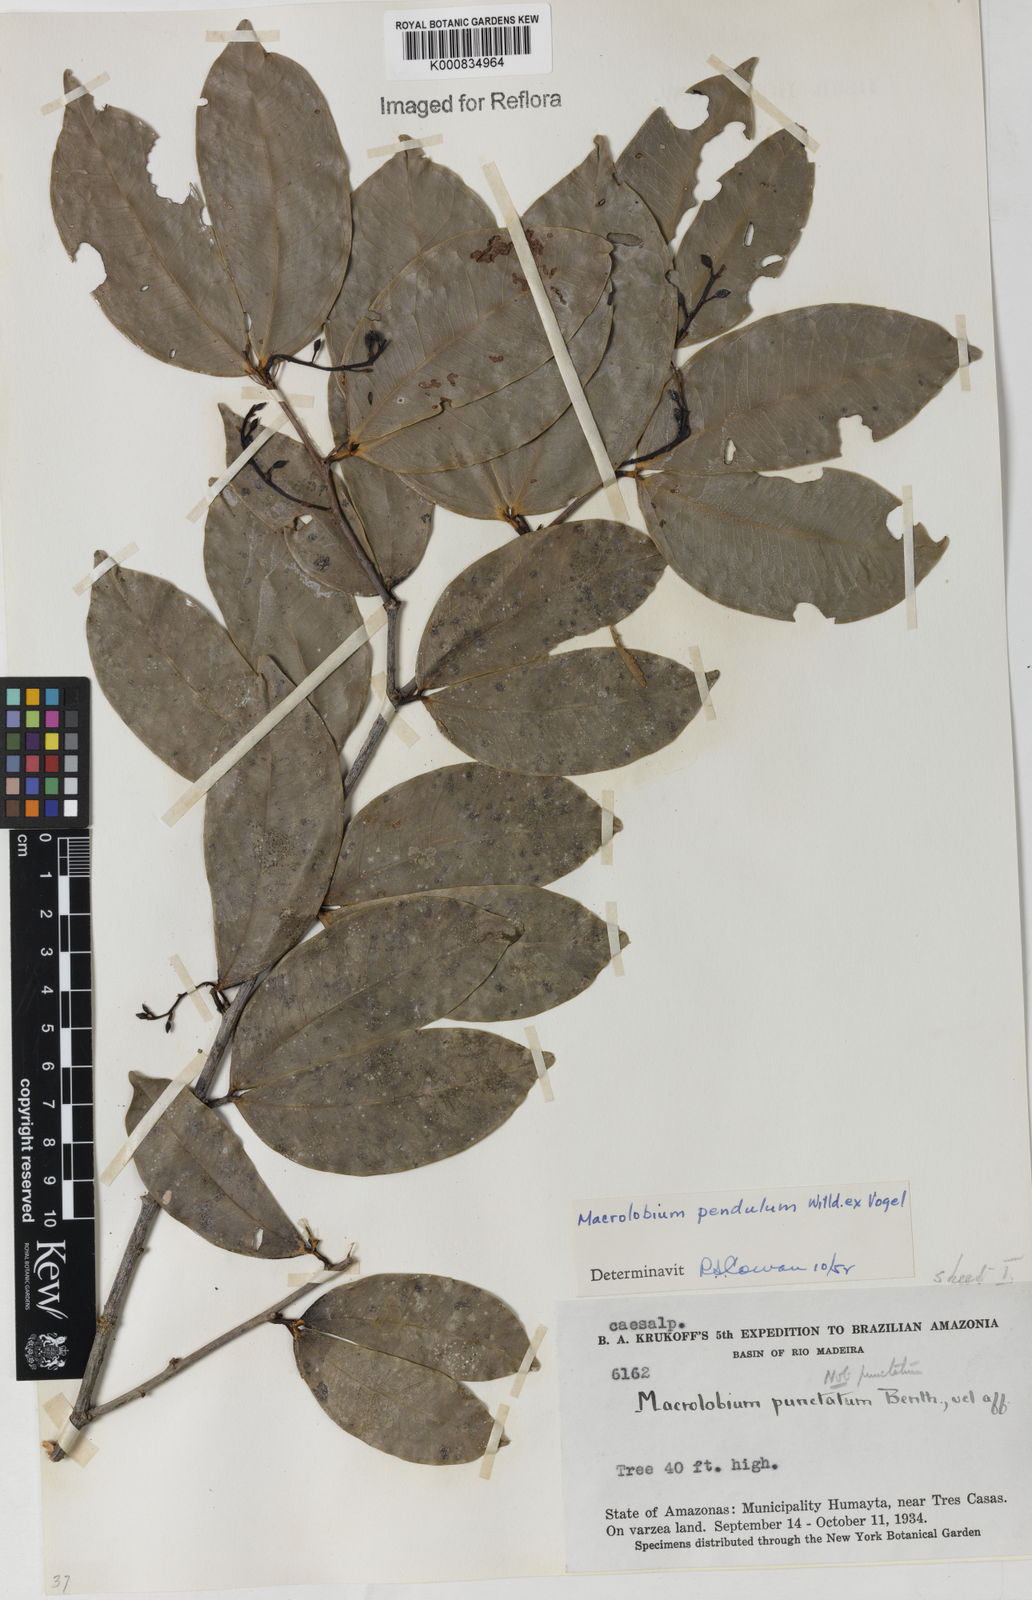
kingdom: Plantae
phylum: Tracheophyta
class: Magnoliopsida
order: Fabales
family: Fabaceae
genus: Macrolobium
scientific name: Macrolobium punctatum
